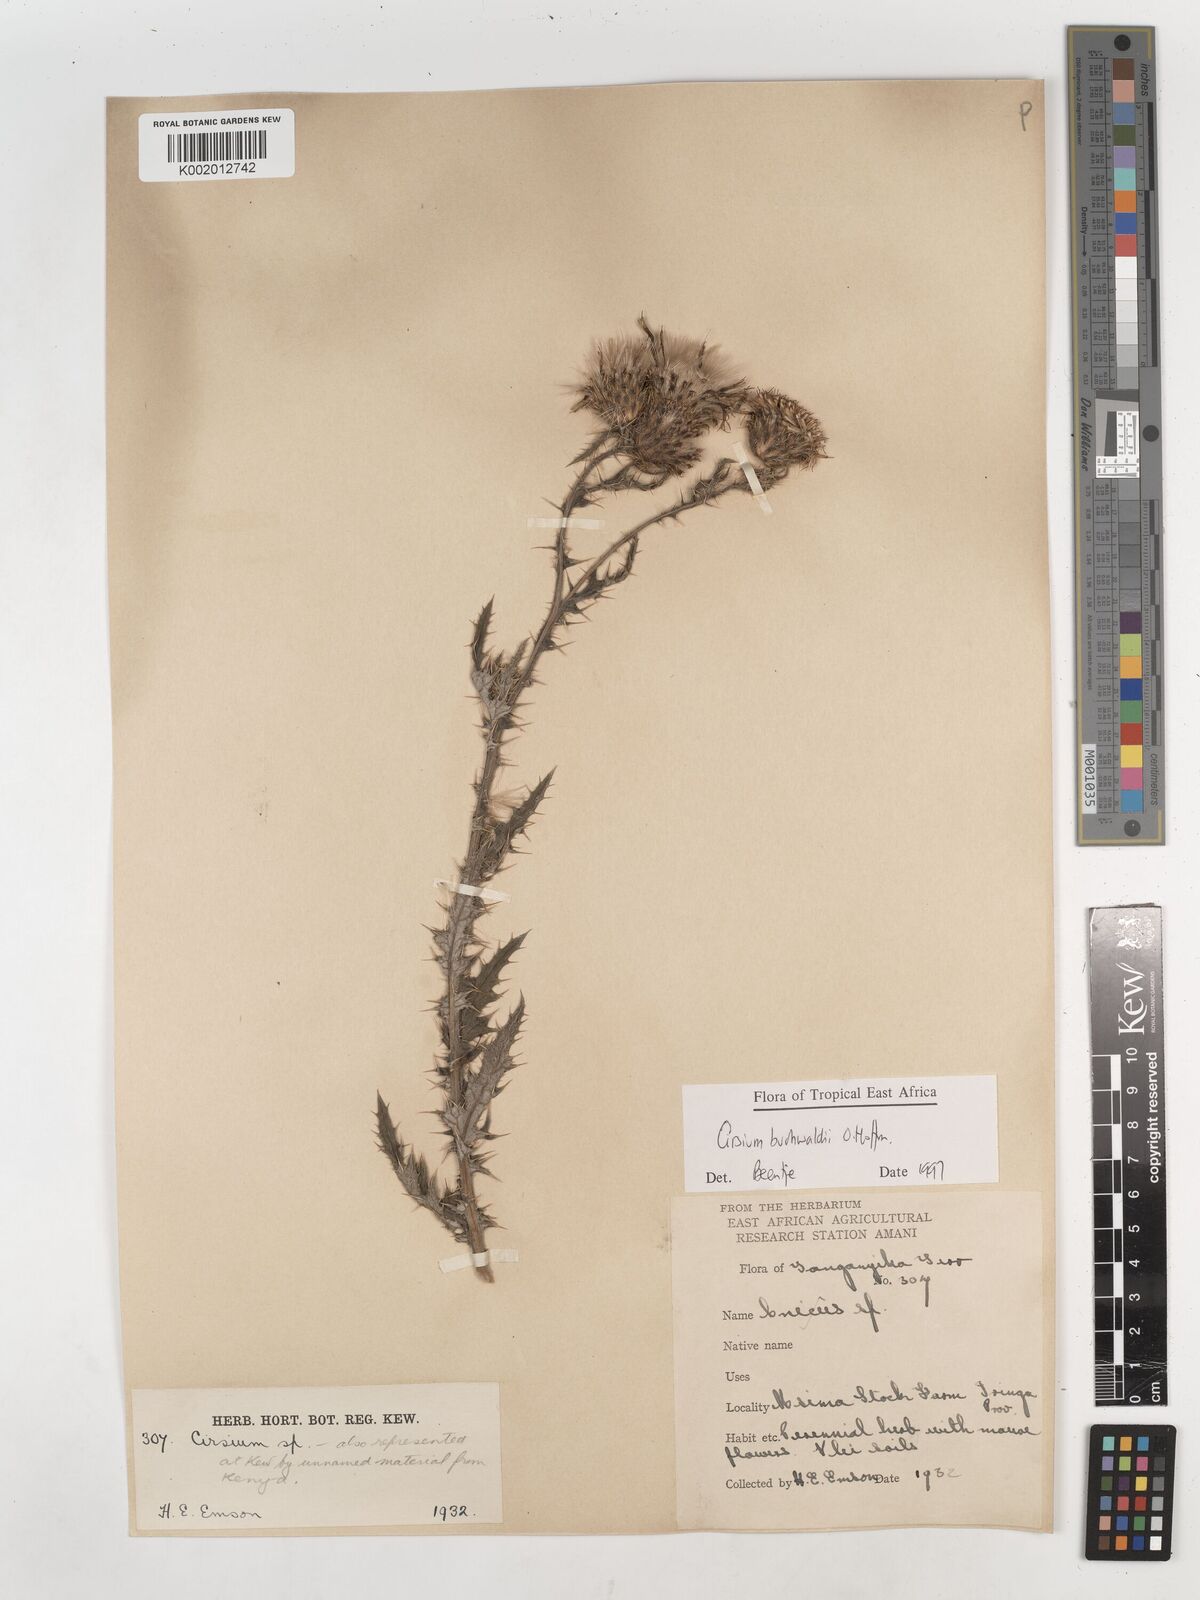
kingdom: Plantae
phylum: Tracheophyta
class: Magnoliopsida
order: Asterales
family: Asteraceae
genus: Cirsium
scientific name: Cirsium buchwaldii
